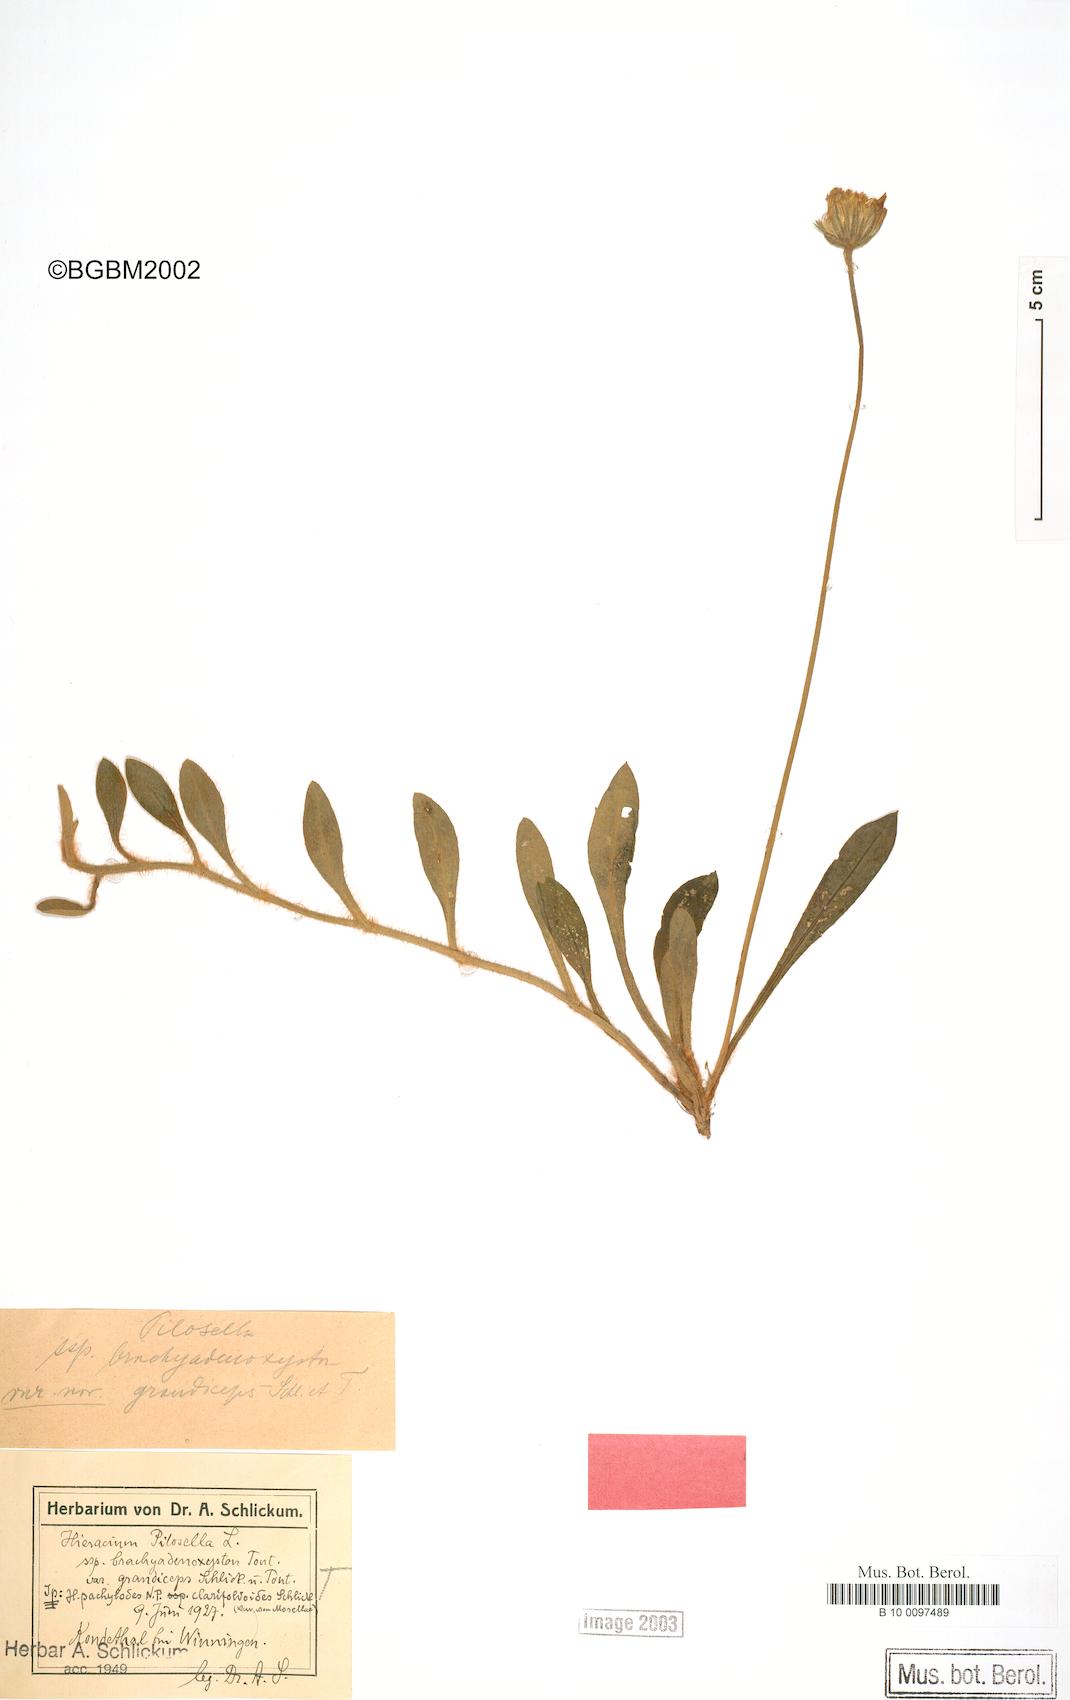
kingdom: Plantae
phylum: Tracheophyta
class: Magnoliopsida
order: Asterales
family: Asteraceae
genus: Pilosella
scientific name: Pilosella officinarum
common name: Mouse-ear hawkweed
